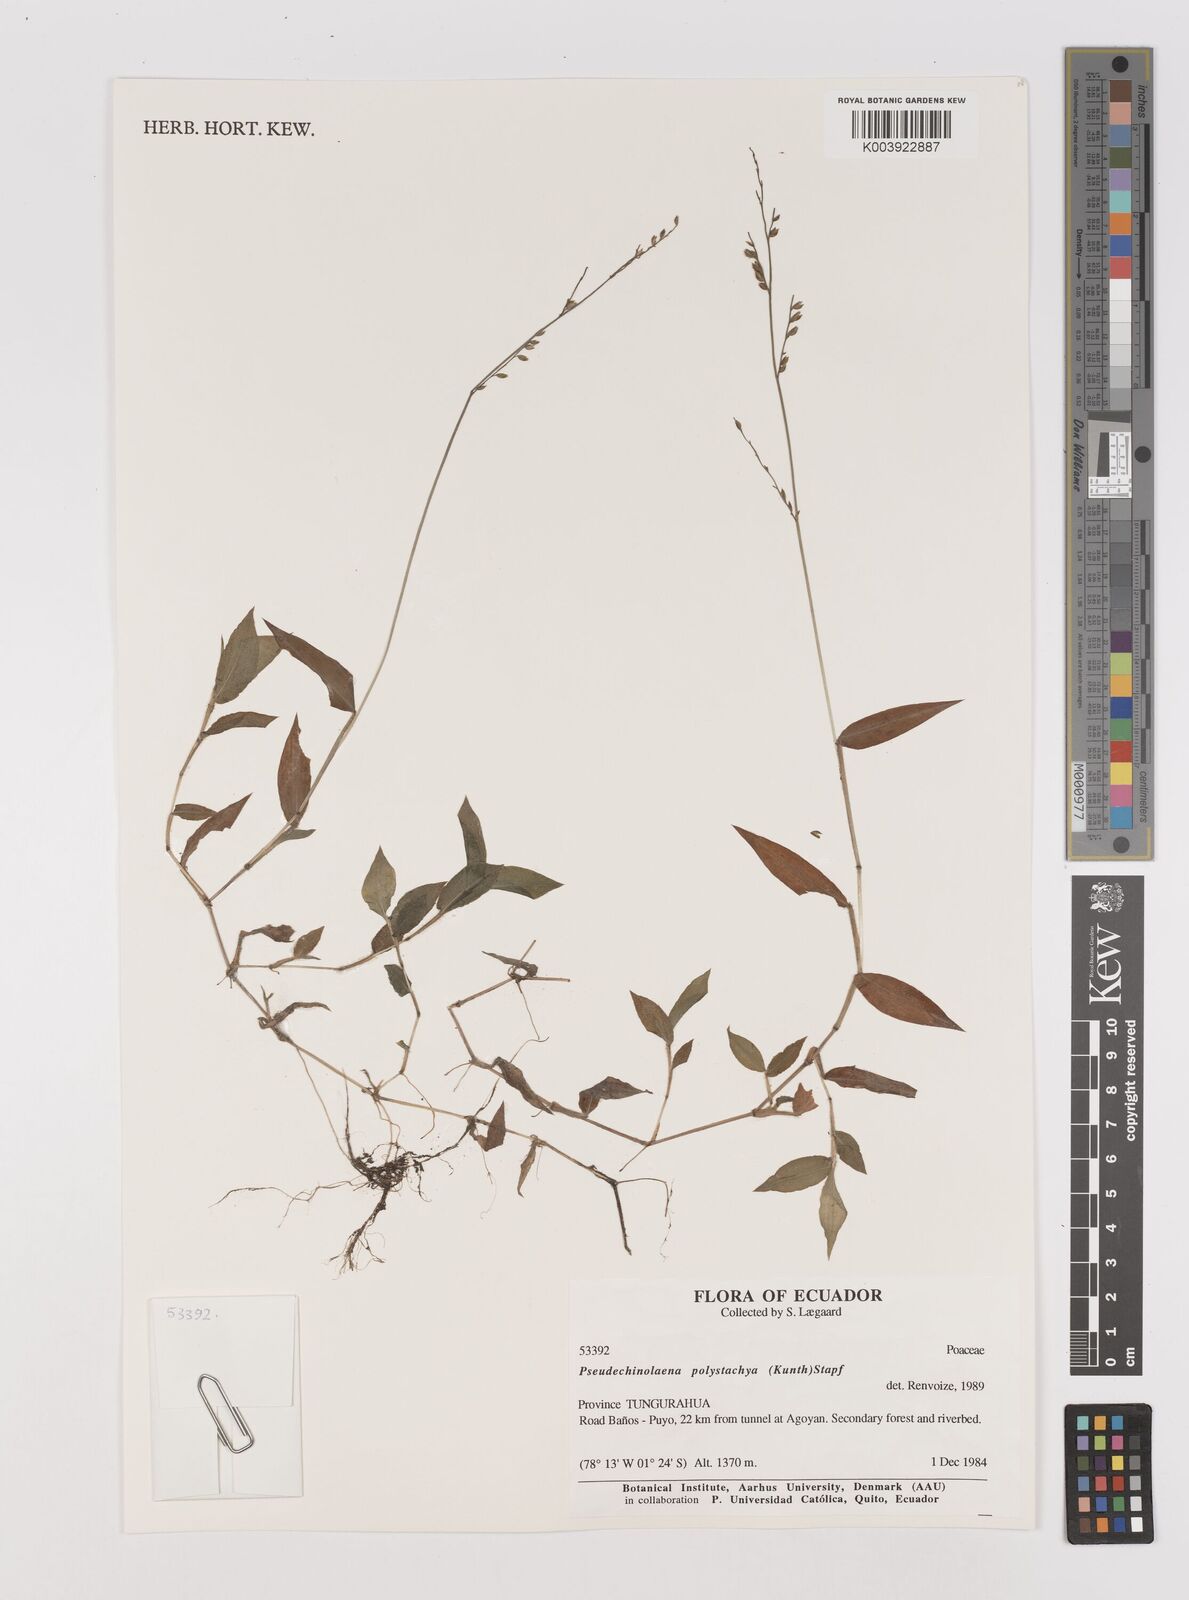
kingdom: Plantae
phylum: Tracheophyta
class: Liliopsida
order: Poales
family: Poaceae
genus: Pseudechinolaena
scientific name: Pseudechinolaena polystachya
